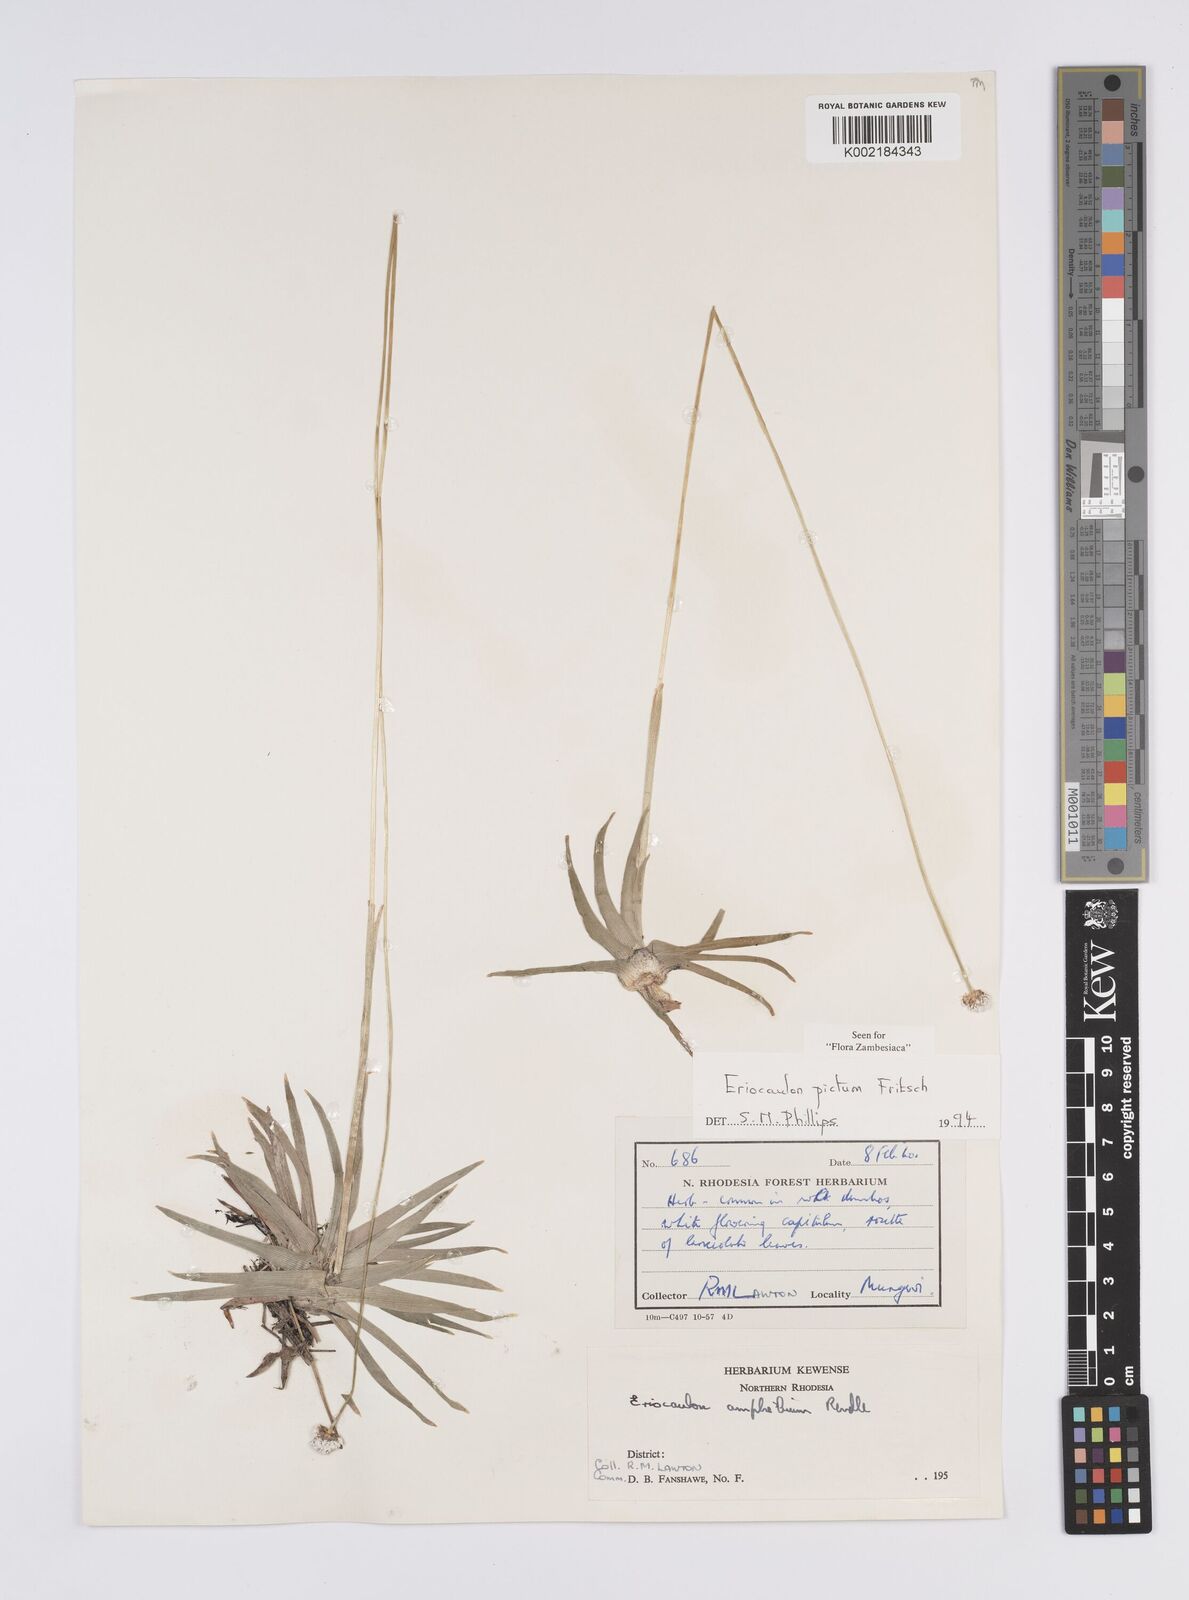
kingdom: Plantae
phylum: Tracheophyta
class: Liliopsida
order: Poales
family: Eriocaulaceae
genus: Eriocaulon
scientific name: Eriocaulon pictum
